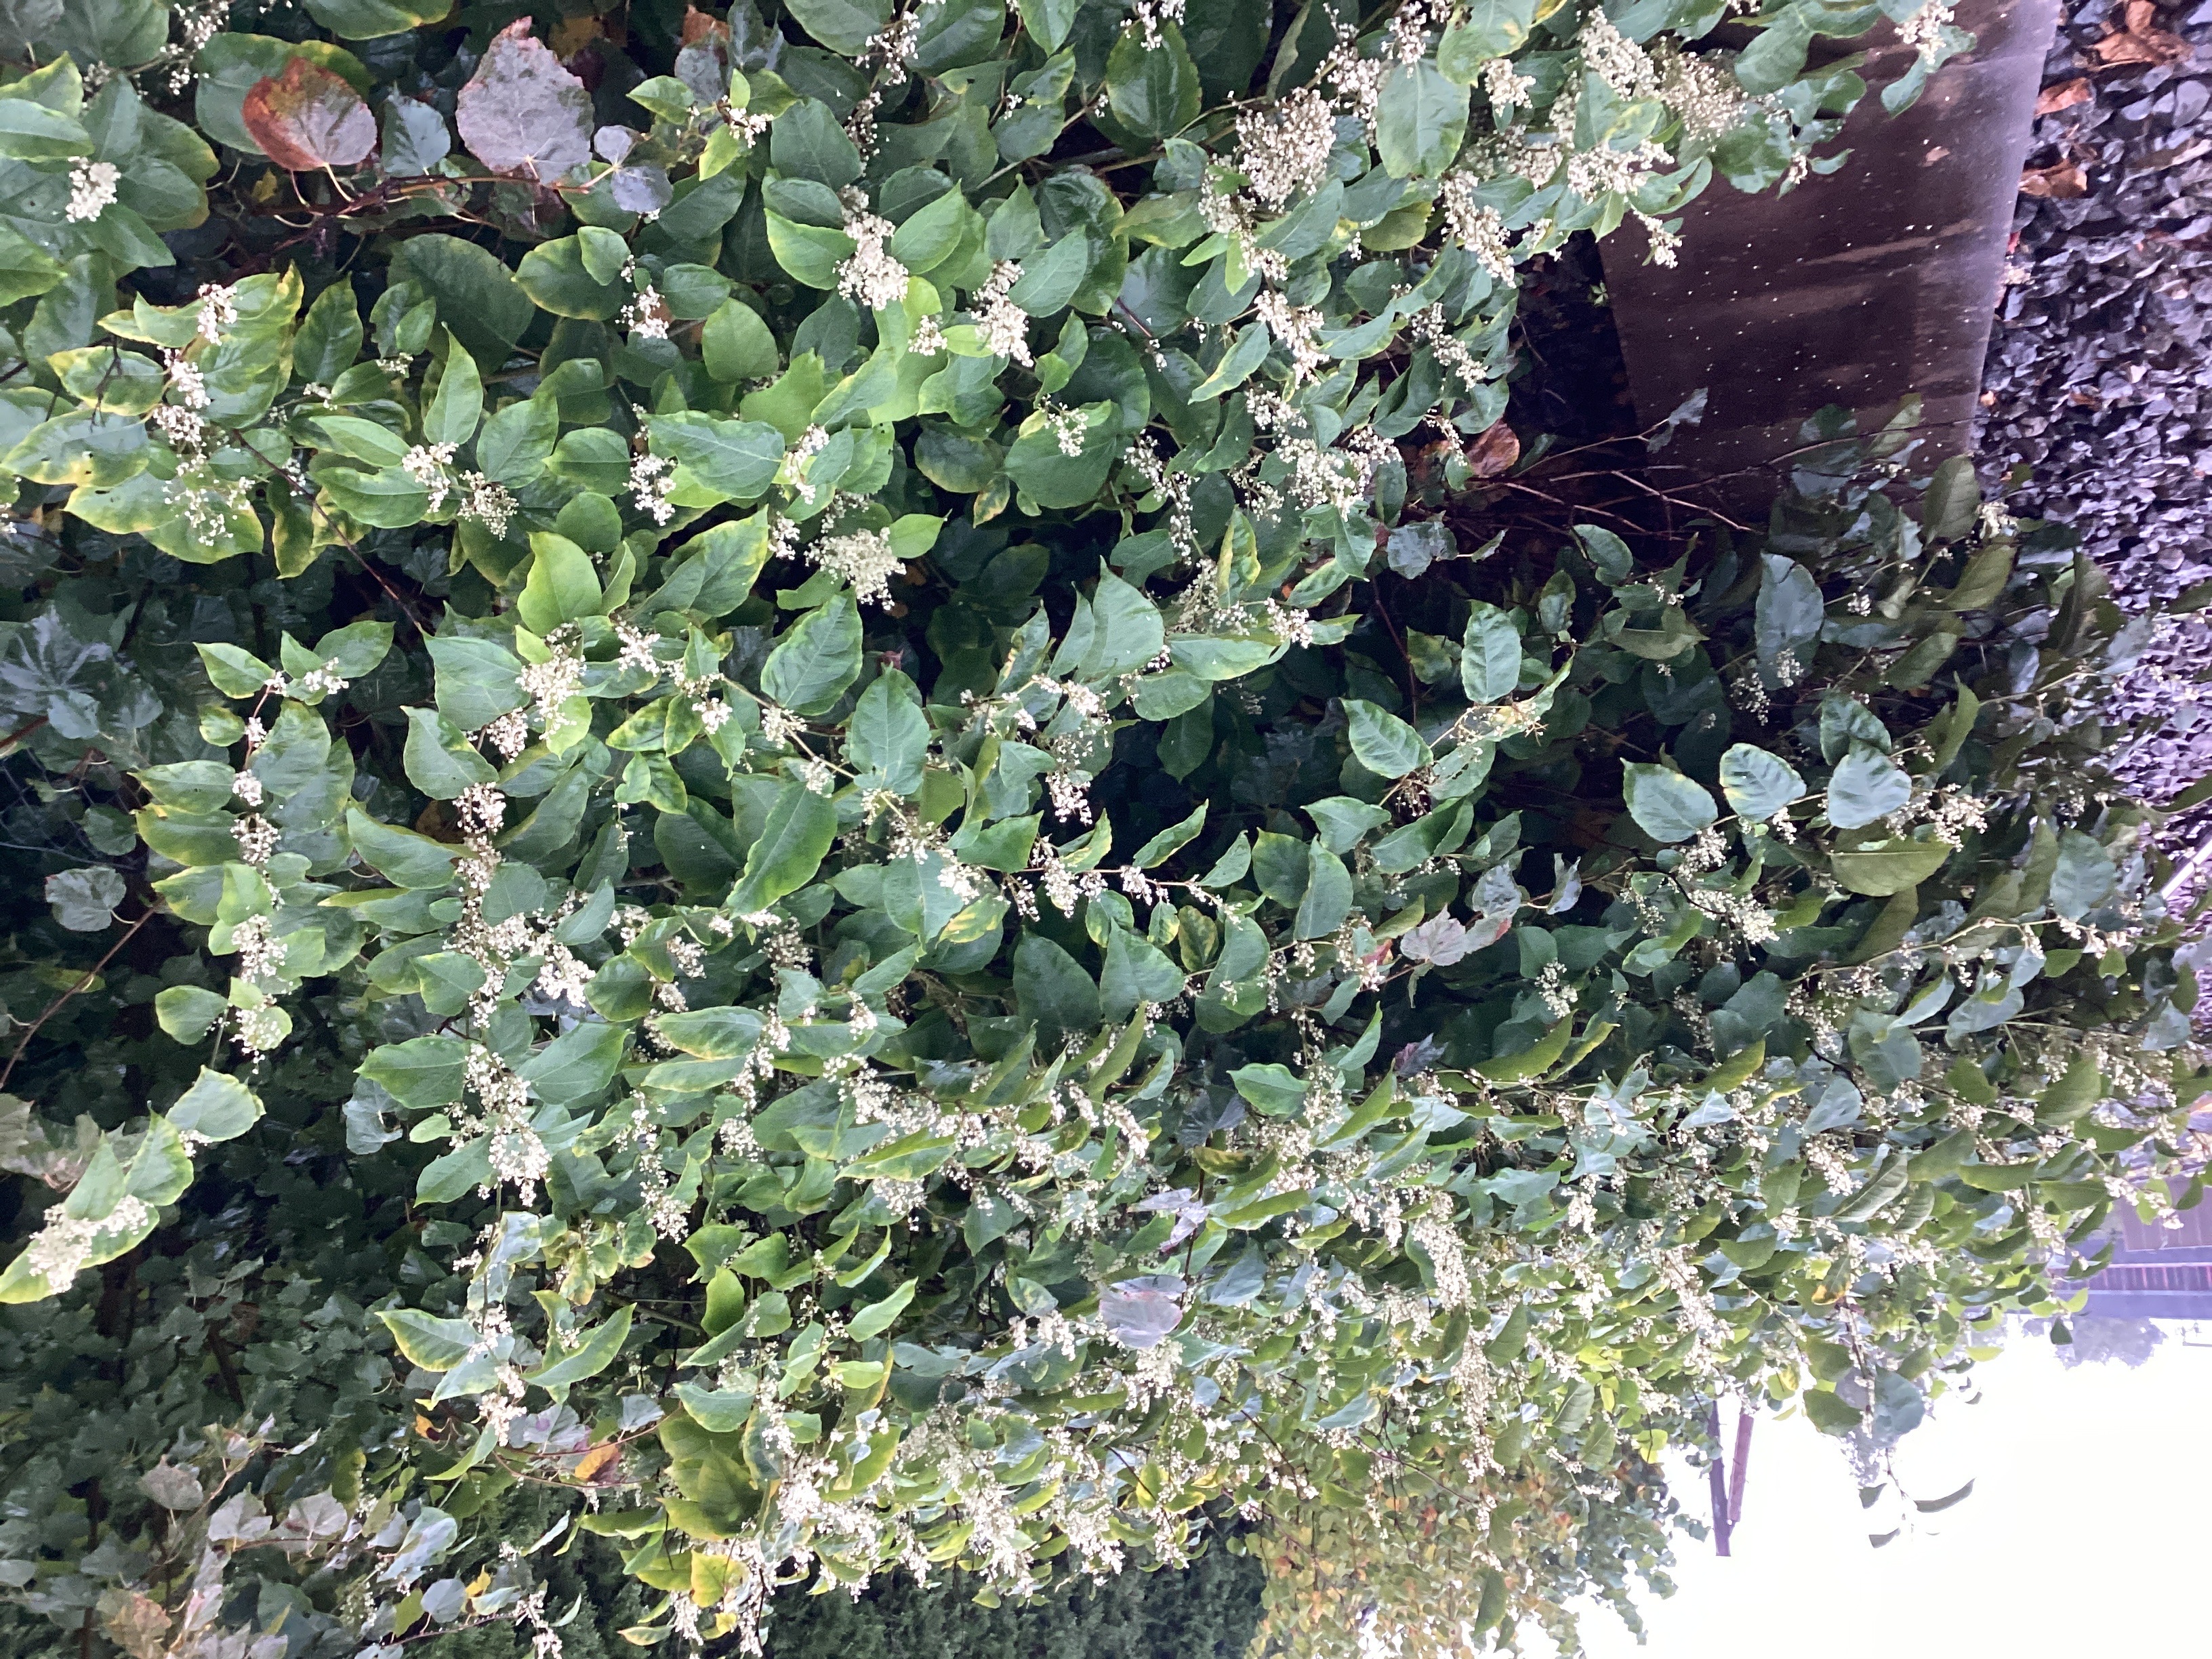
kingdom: Plantae
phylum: Tracheophyta
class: Magnoliopsida
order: Caryophyllales
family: Polygonaceae
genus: Reynoutria
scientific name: Reynoutria japonica
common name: parkslirekne
